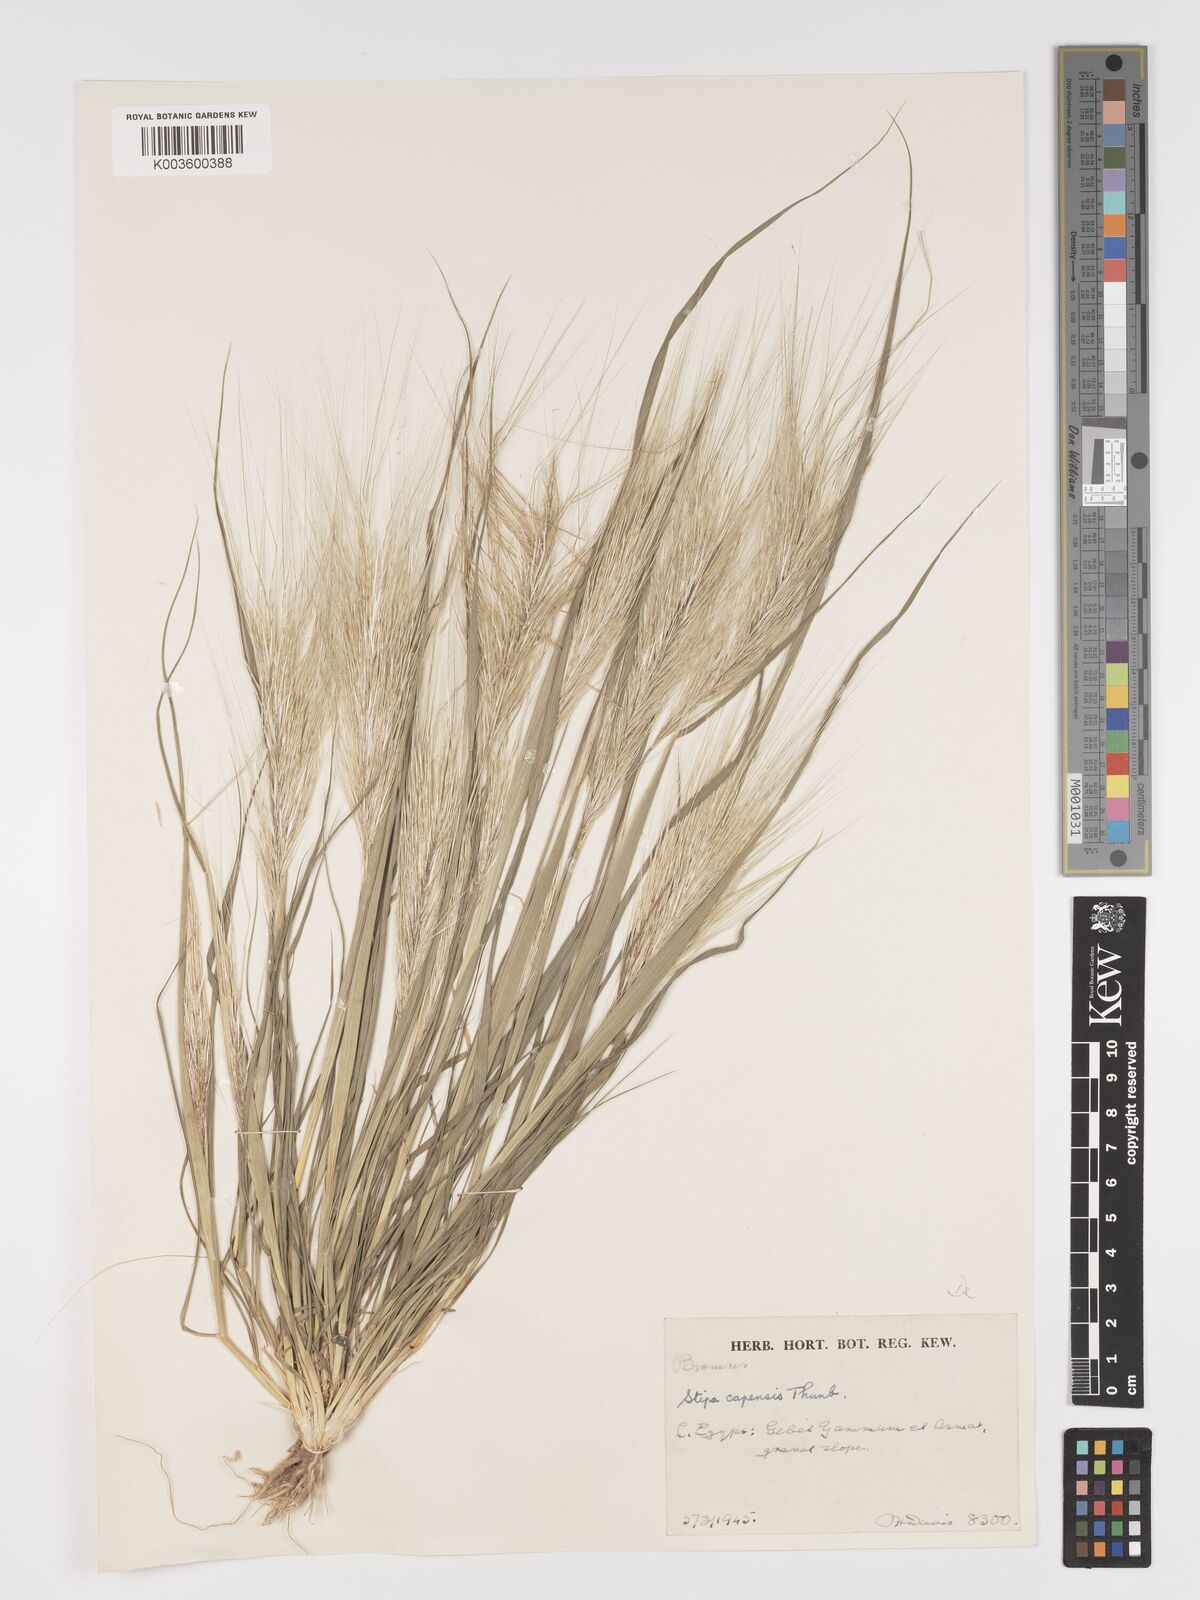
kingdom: Plantae
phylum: Tracheophyta
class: Liliopsida
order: Poales
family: Poaceae
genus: Stipellula
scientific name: Stipellula capensis
